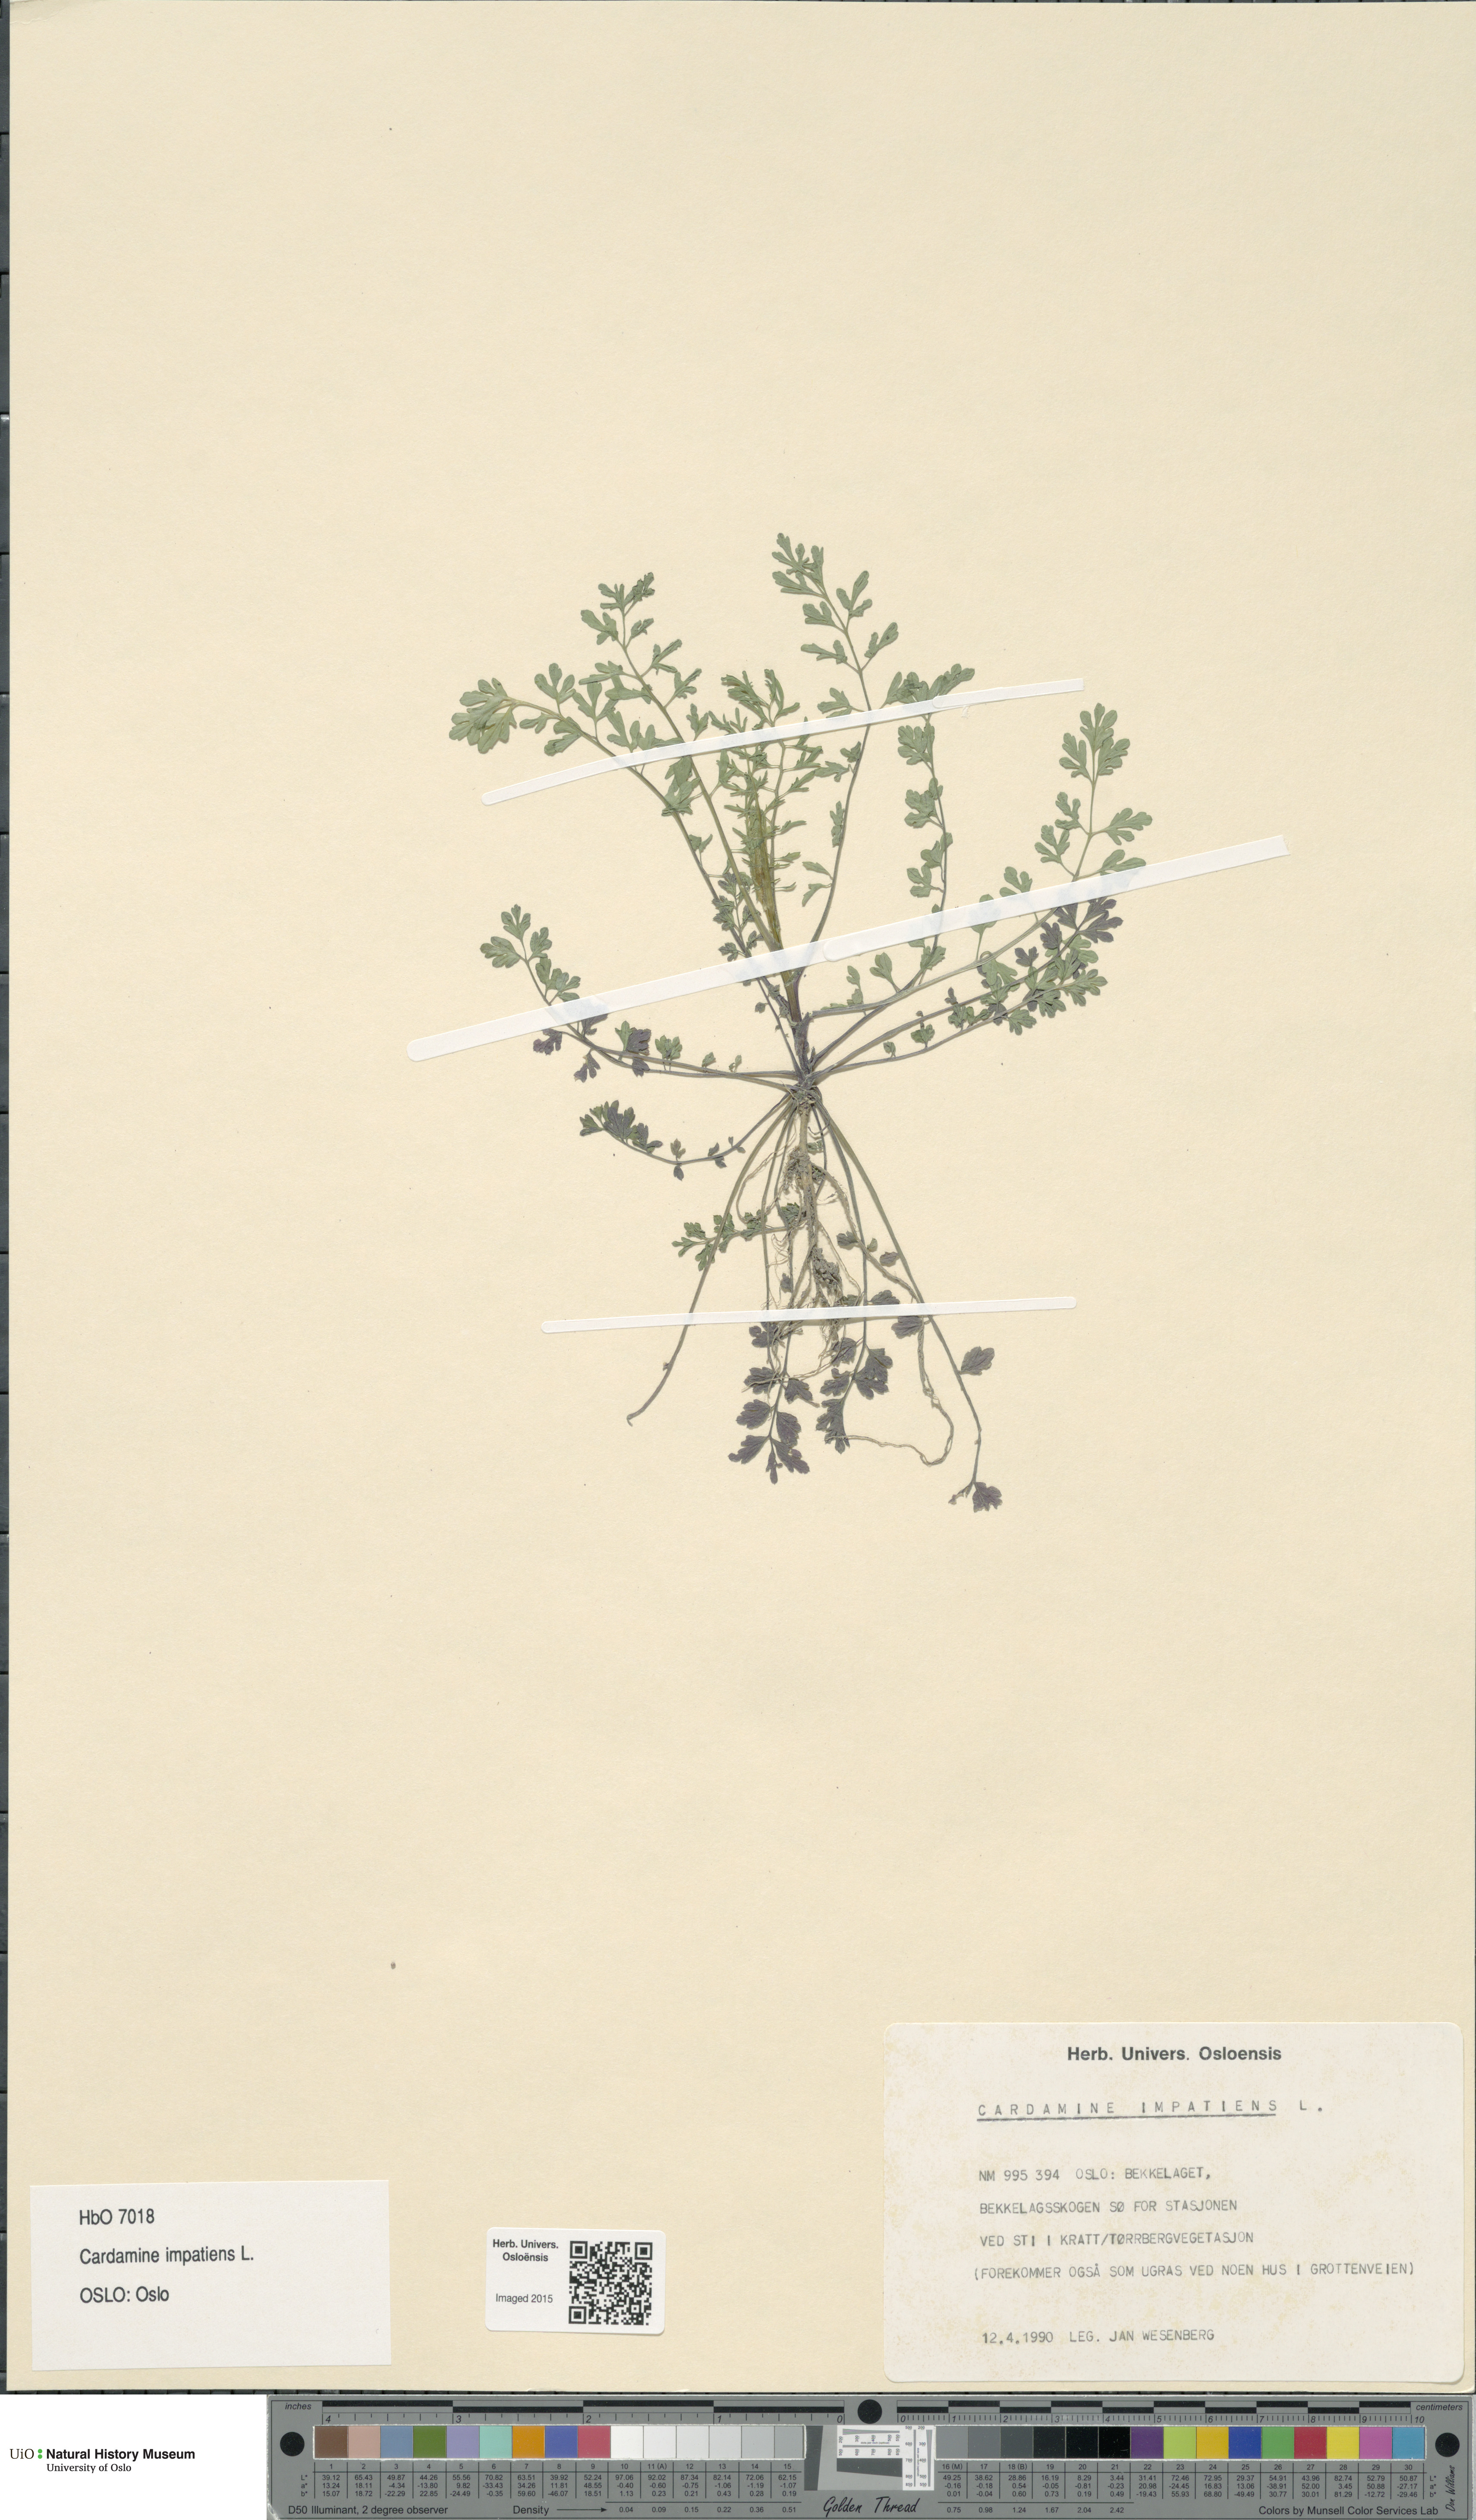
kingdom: Plantae
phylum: Tracheophyta
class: Magnoliopsida
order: Brassicales
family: Brassicaceae
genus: Cardamine
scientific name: Cardamine impatiens
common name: Narrow-leaved bitter-cress
